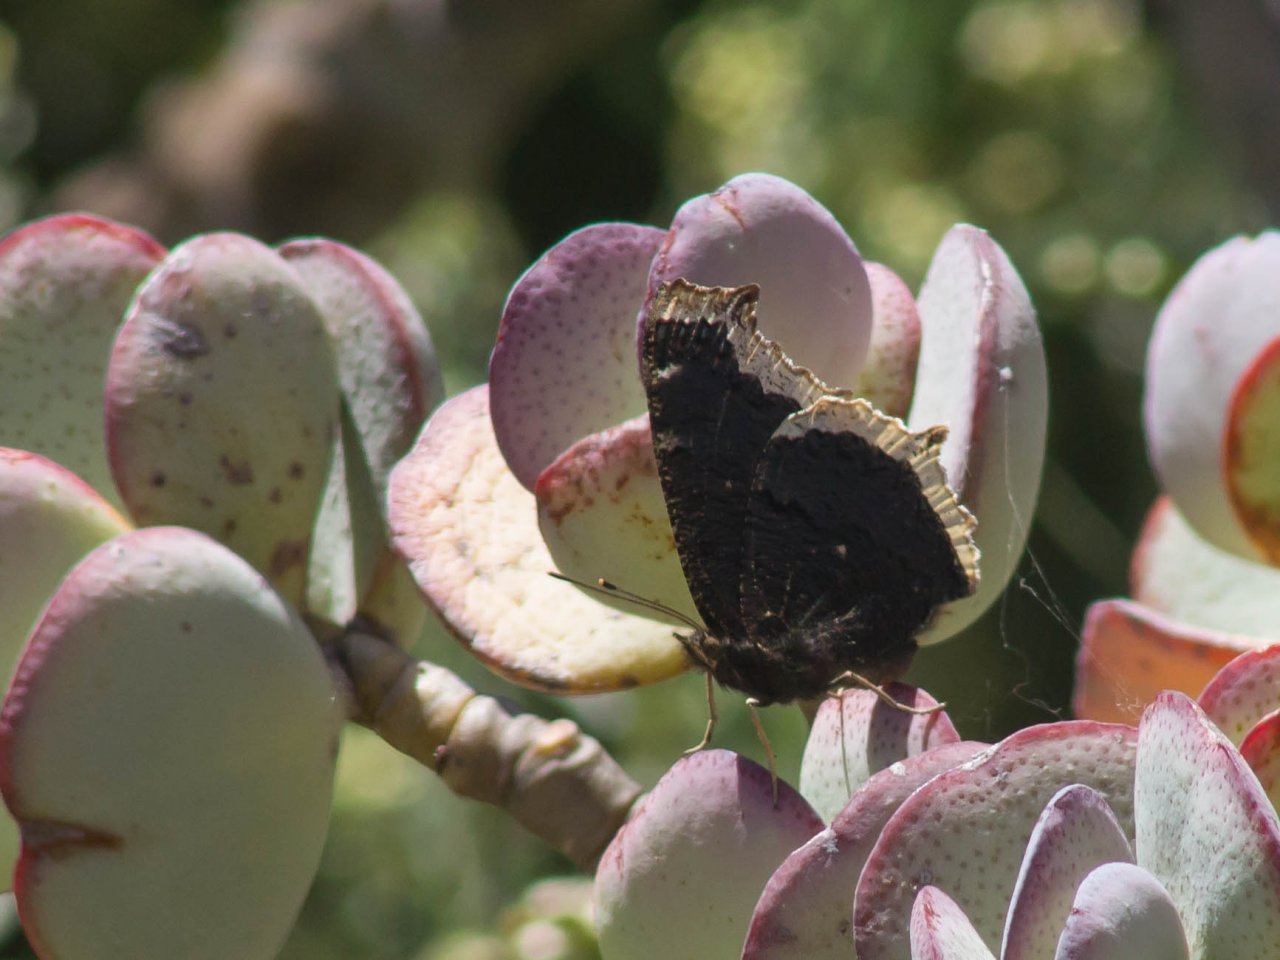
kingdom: Animalia
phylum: Arthropoda
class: Insecta
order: Lepidoptera
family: Nymphalidae
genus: Nymphalis
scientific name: Nymphalis antiopa
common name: Mourning Cloak
